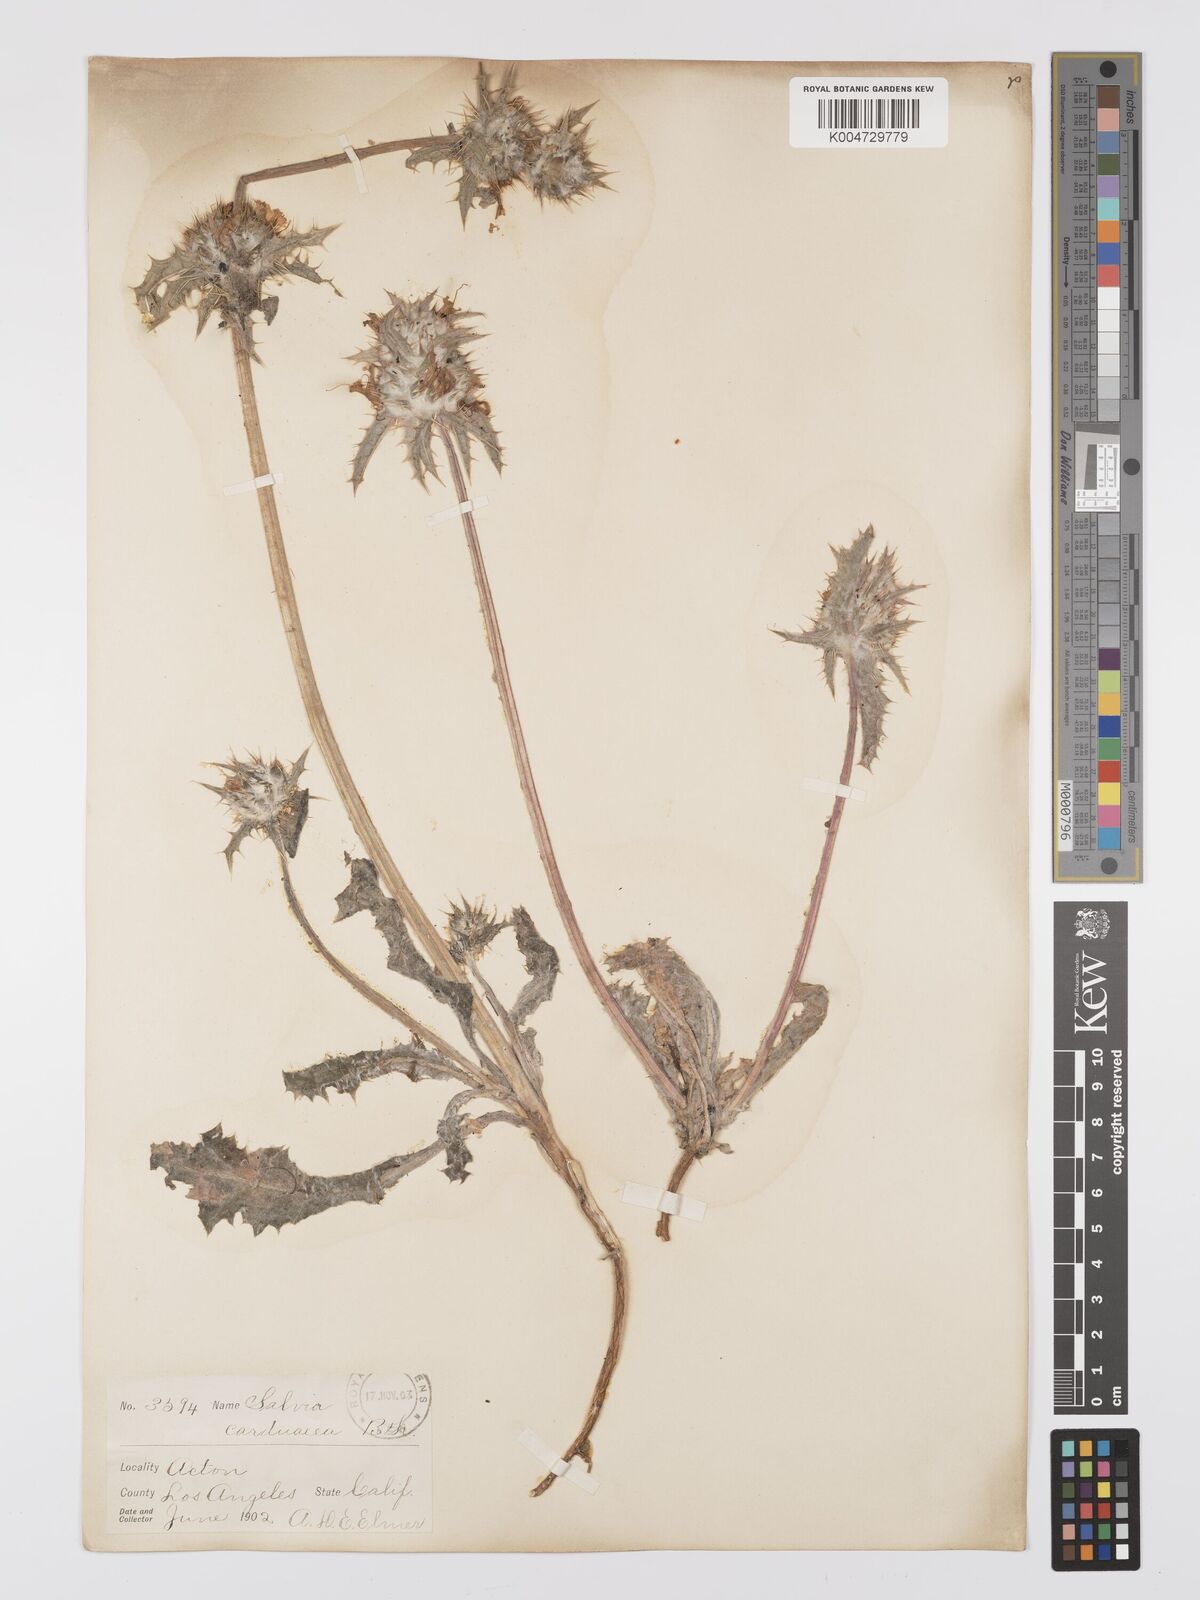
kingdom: Plantae
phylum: Tracheophyta
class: Magnoliopsida
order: Lamiales
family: Lamiaceae
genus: Salvia
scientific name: Salvia carduacea
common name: Thistle sage
